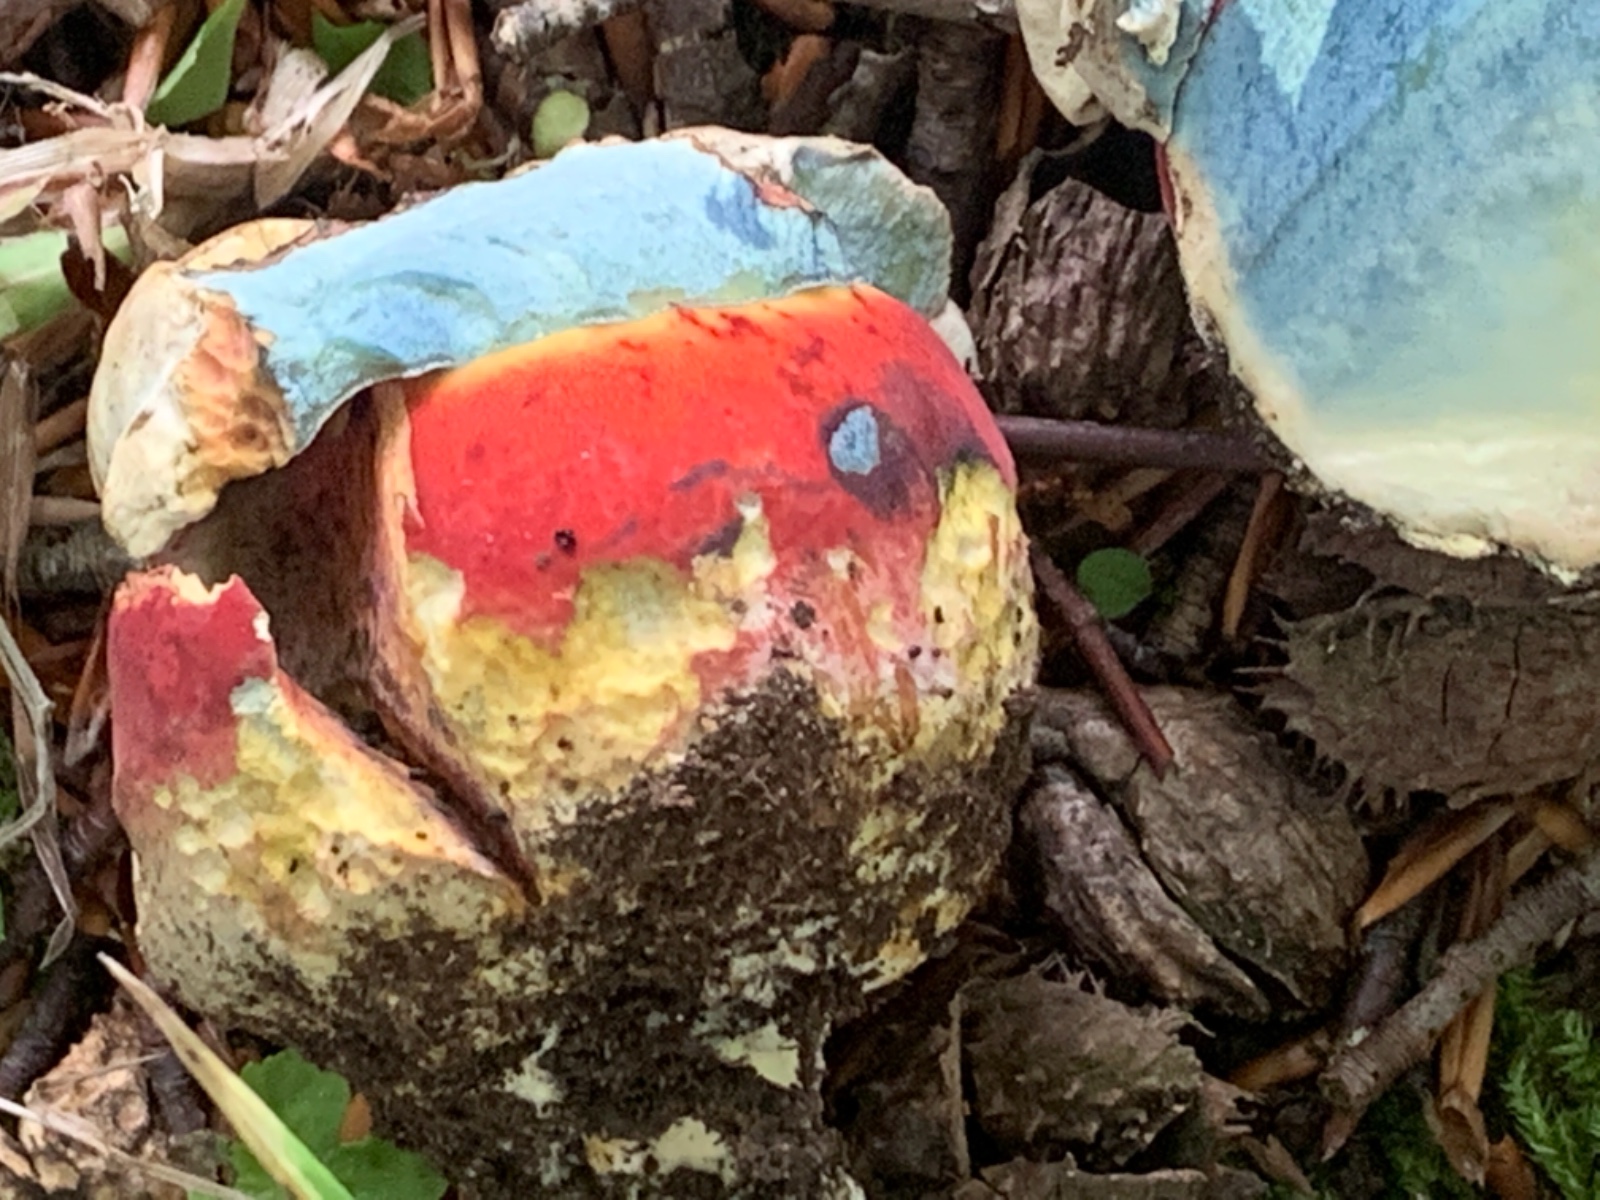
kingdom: Fungi
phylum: Basidiomycota
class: Agaricomycetes
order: Boletales
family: Boletaceae
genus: Rubroboletus
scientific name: Rubroboletus satanas
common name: Satans rørhat
